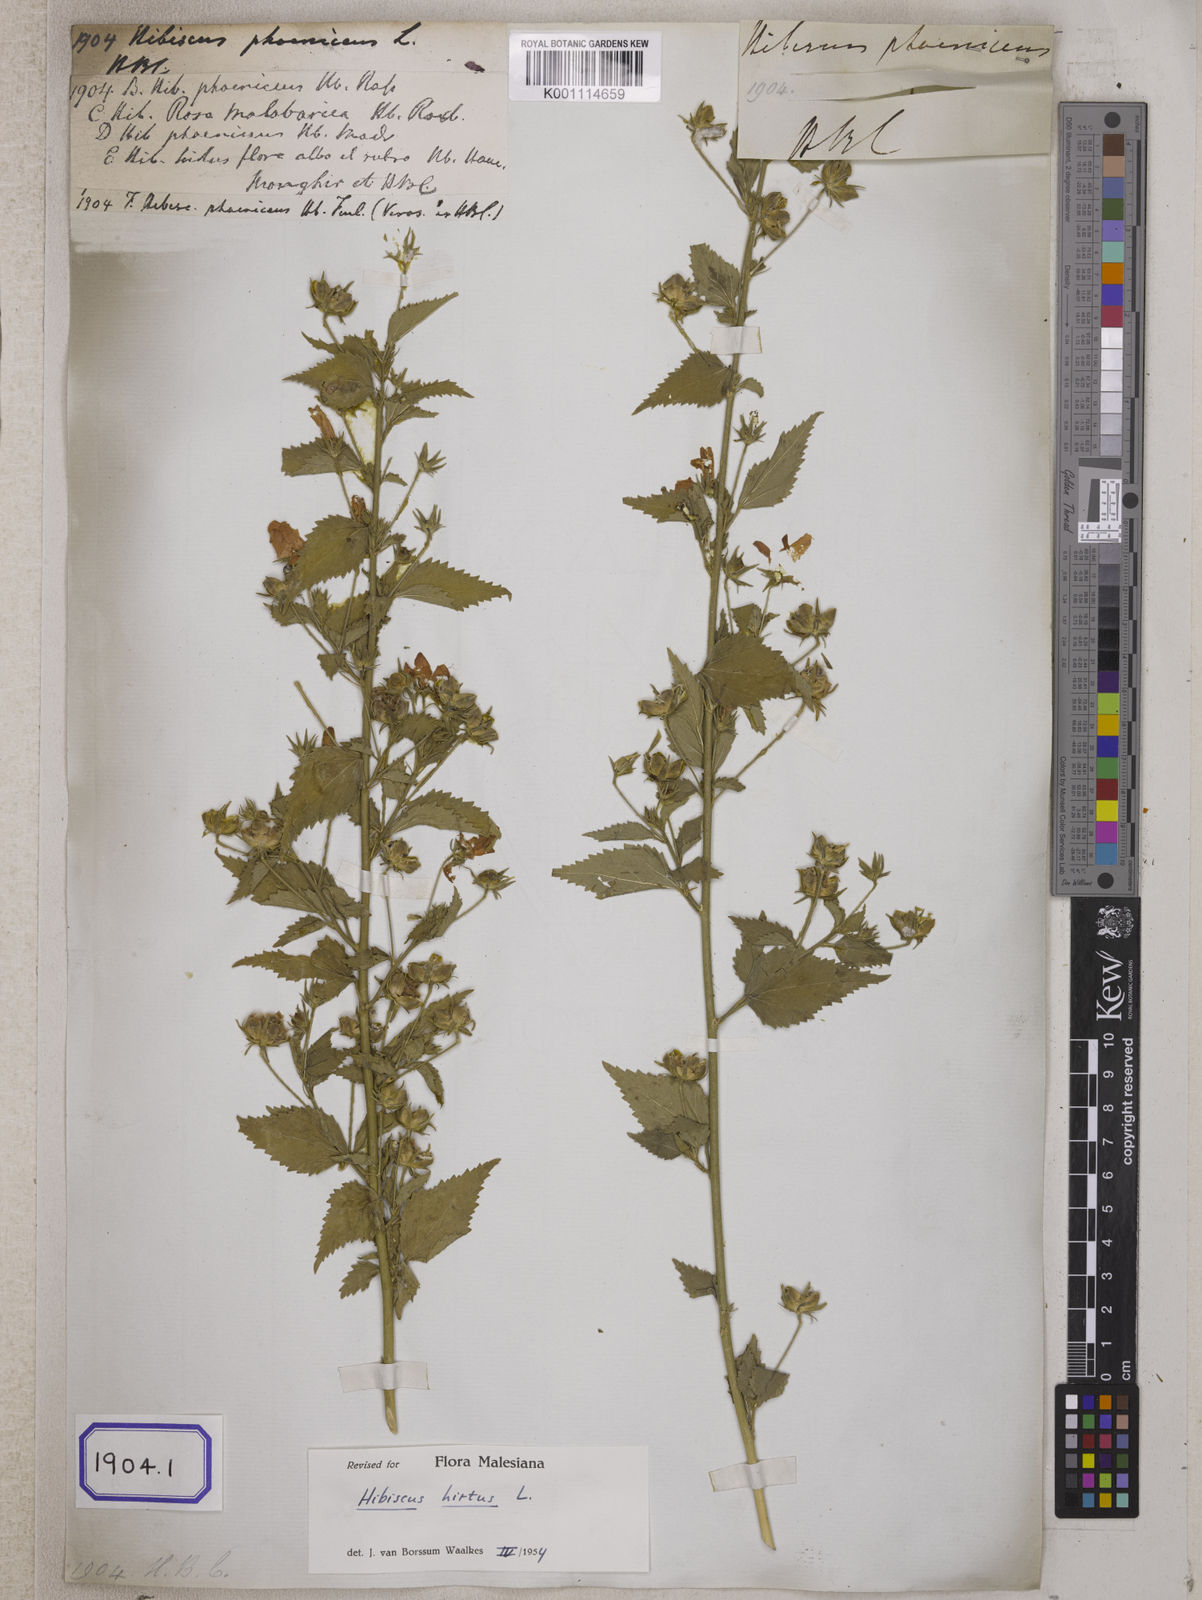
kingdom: Plantae
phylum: Tracheophyta
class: Magnoliopsida
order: Malvales
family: Malvaceae
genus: Hibiscus
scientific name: Hibiscus phoeniceus
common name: Brazilian rosemallow
